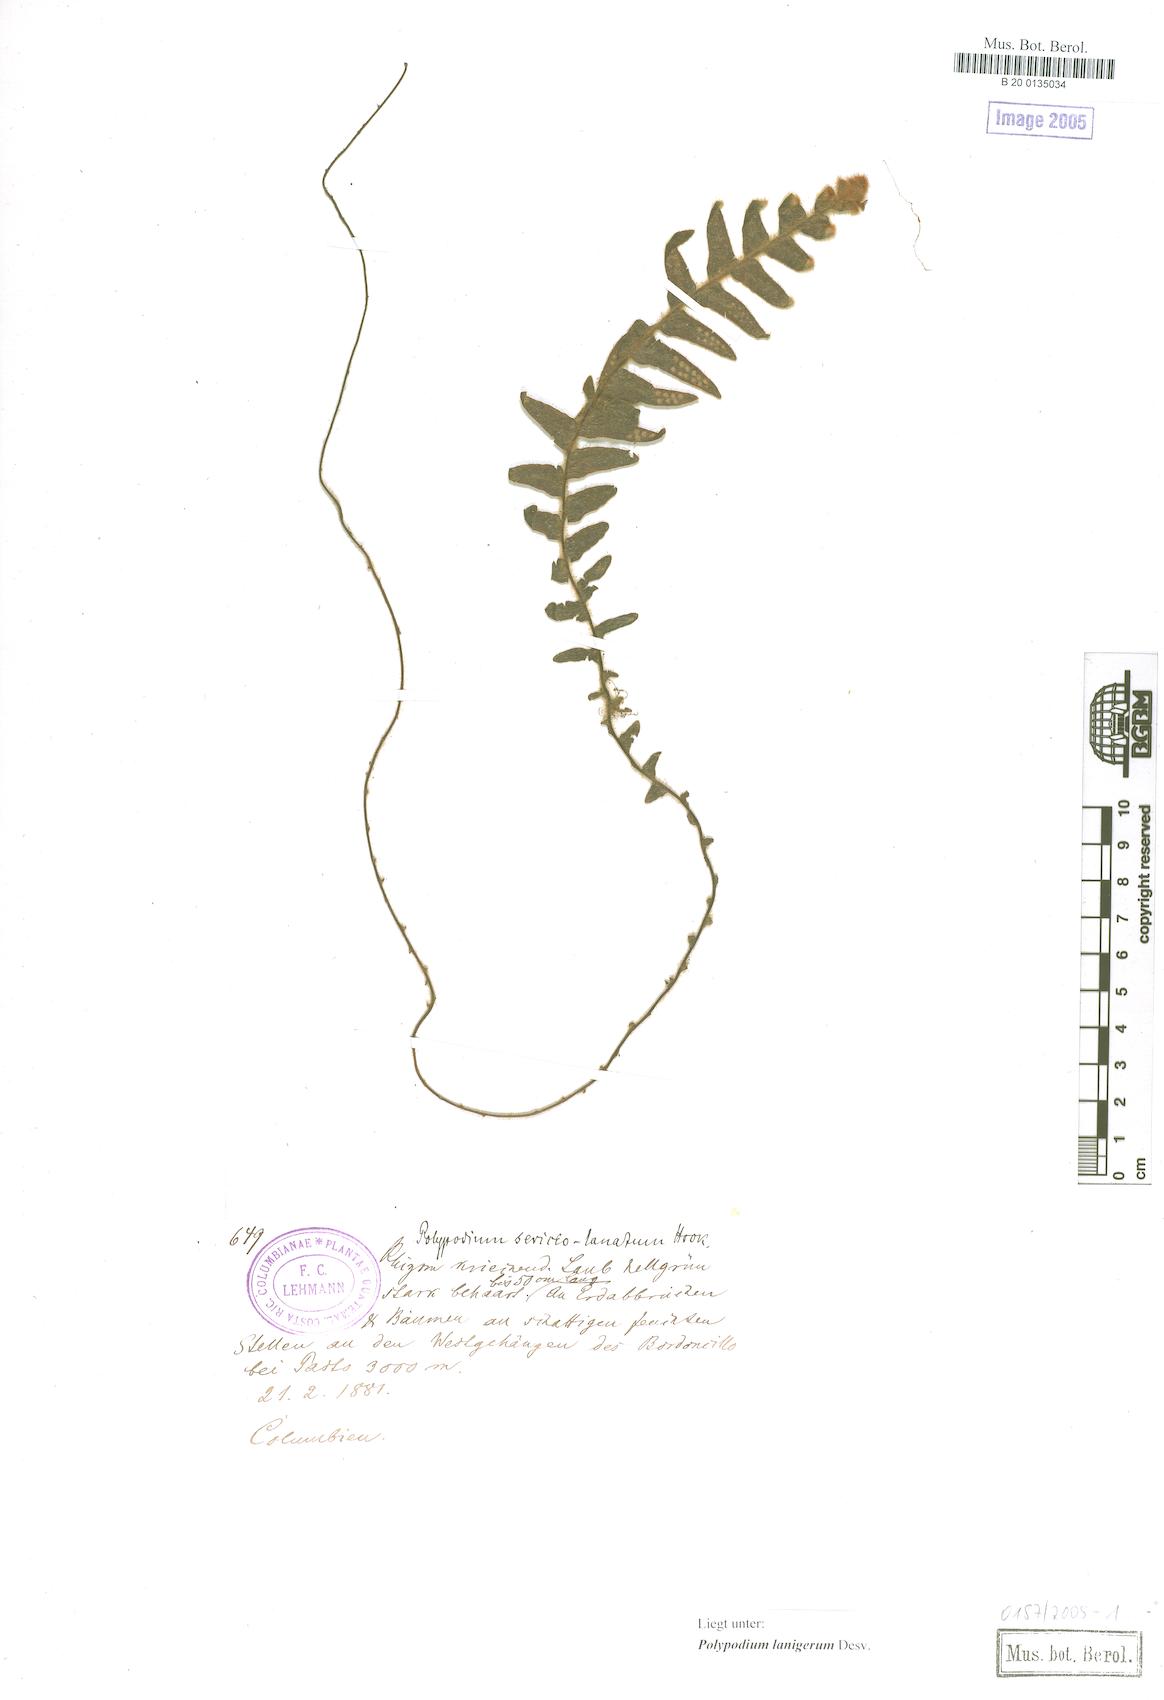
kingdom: Plantae
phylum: Tracheophyta
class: Polypodiopsida
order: Polypodiales
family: Polypodiaceae
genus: Alansmia
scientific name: Alansmia lanigera
